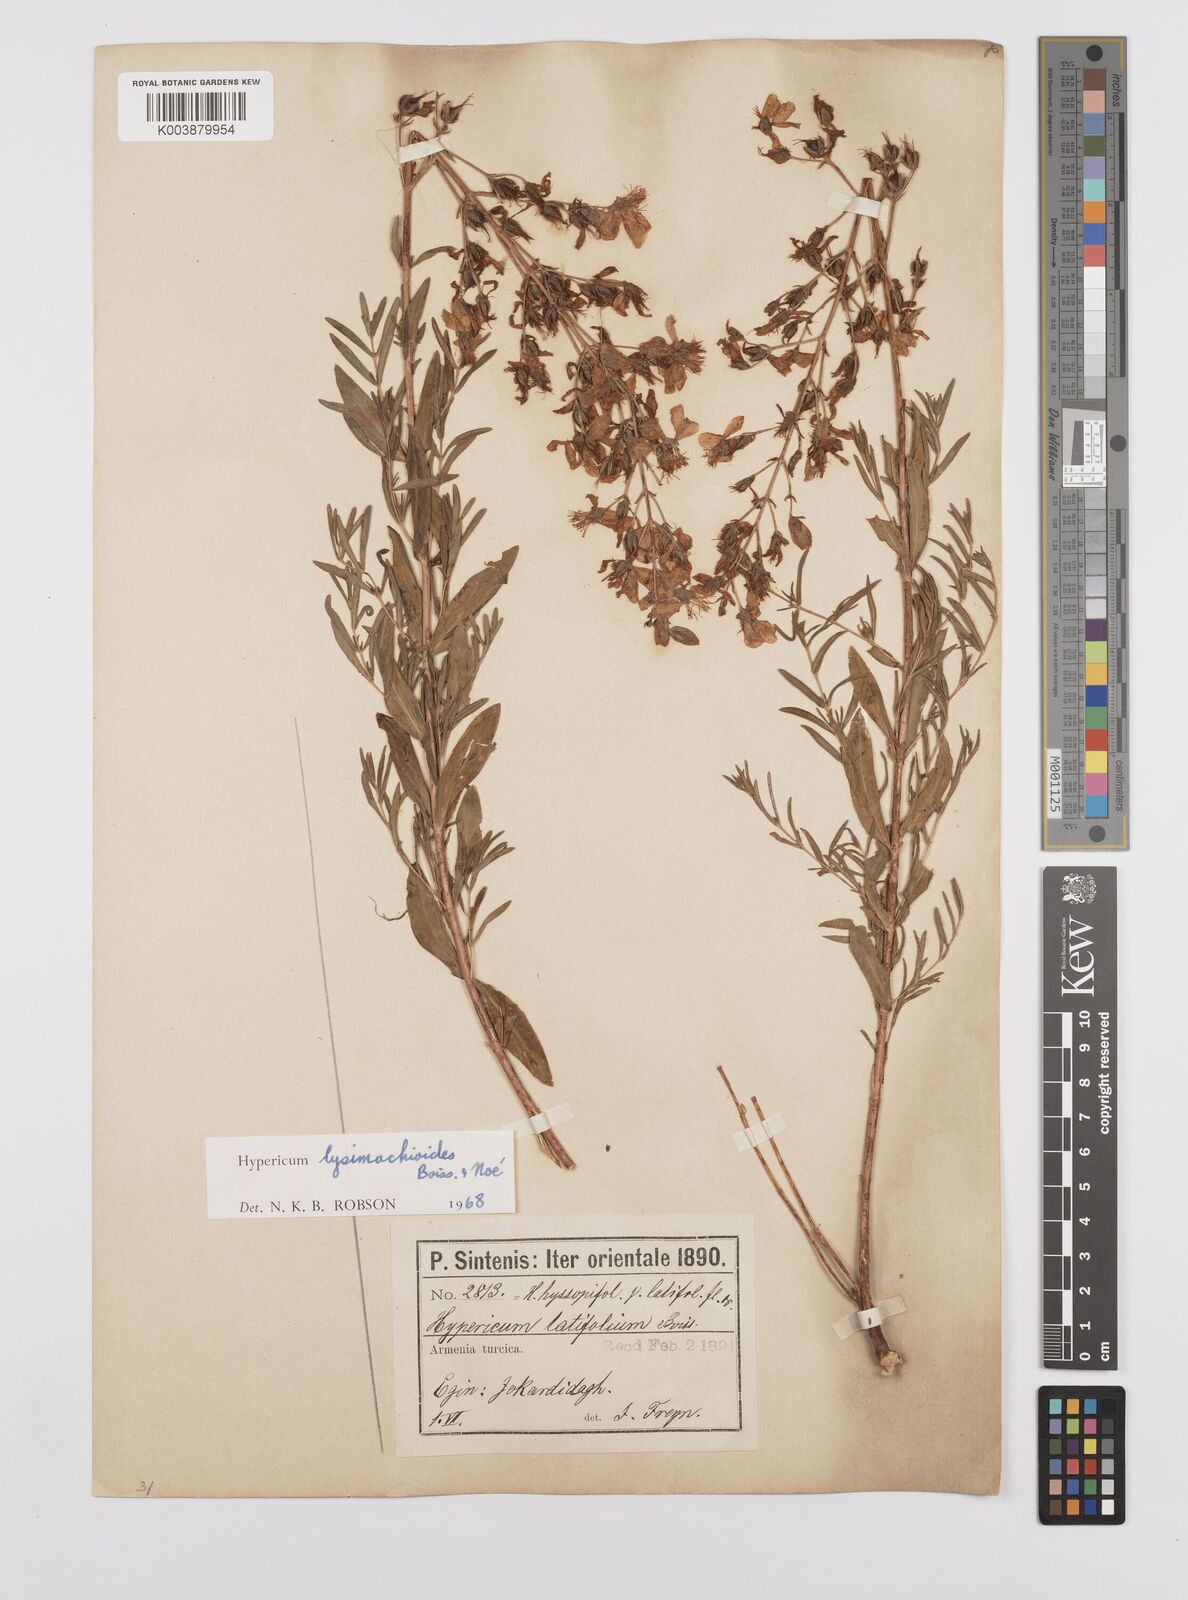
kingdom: Plantae
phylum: Tracheophyta
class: Magnoliopsida
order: Malpighiales
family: Hypericaceae
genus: Hypericum
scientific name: Hypericum lysimachioides
